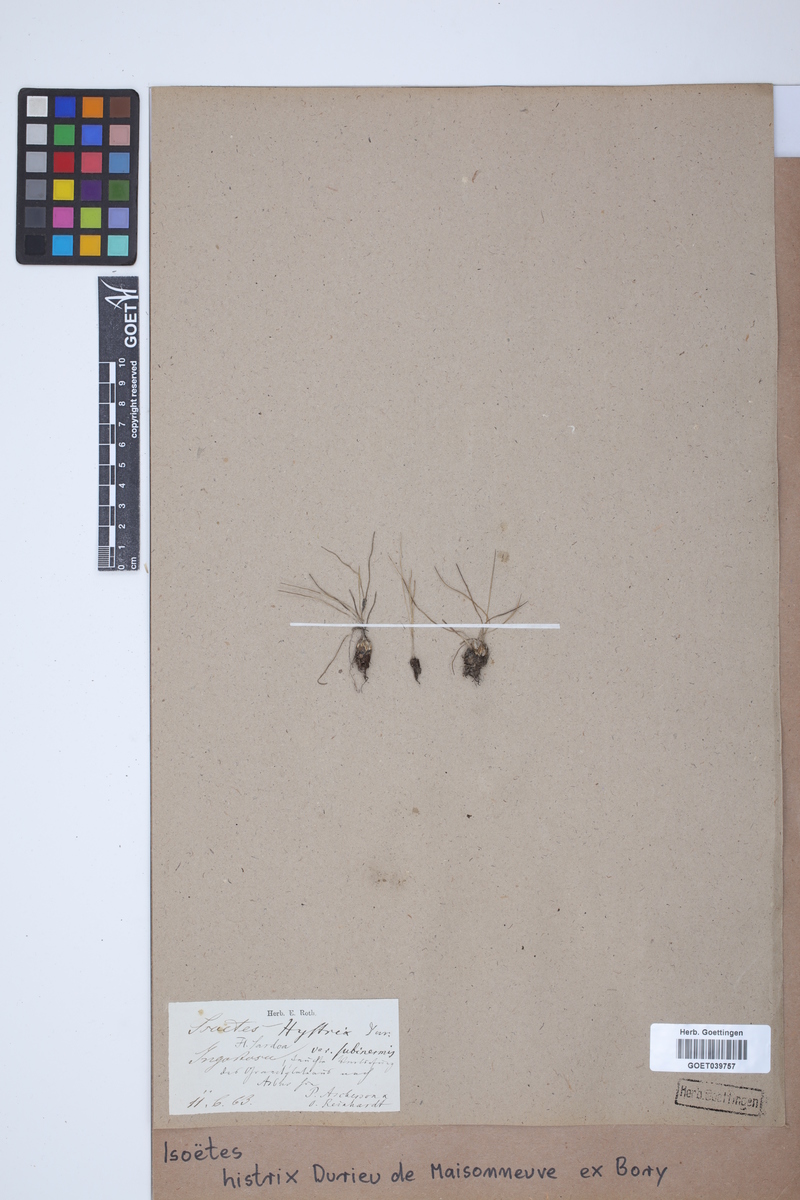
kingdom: Plantae
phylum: Tracheophyta
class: Lycopodiopsida
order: Isoetales
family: Isoetaceae
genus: Isoetes
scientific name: Isoetes histrix
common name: Land quillwort
